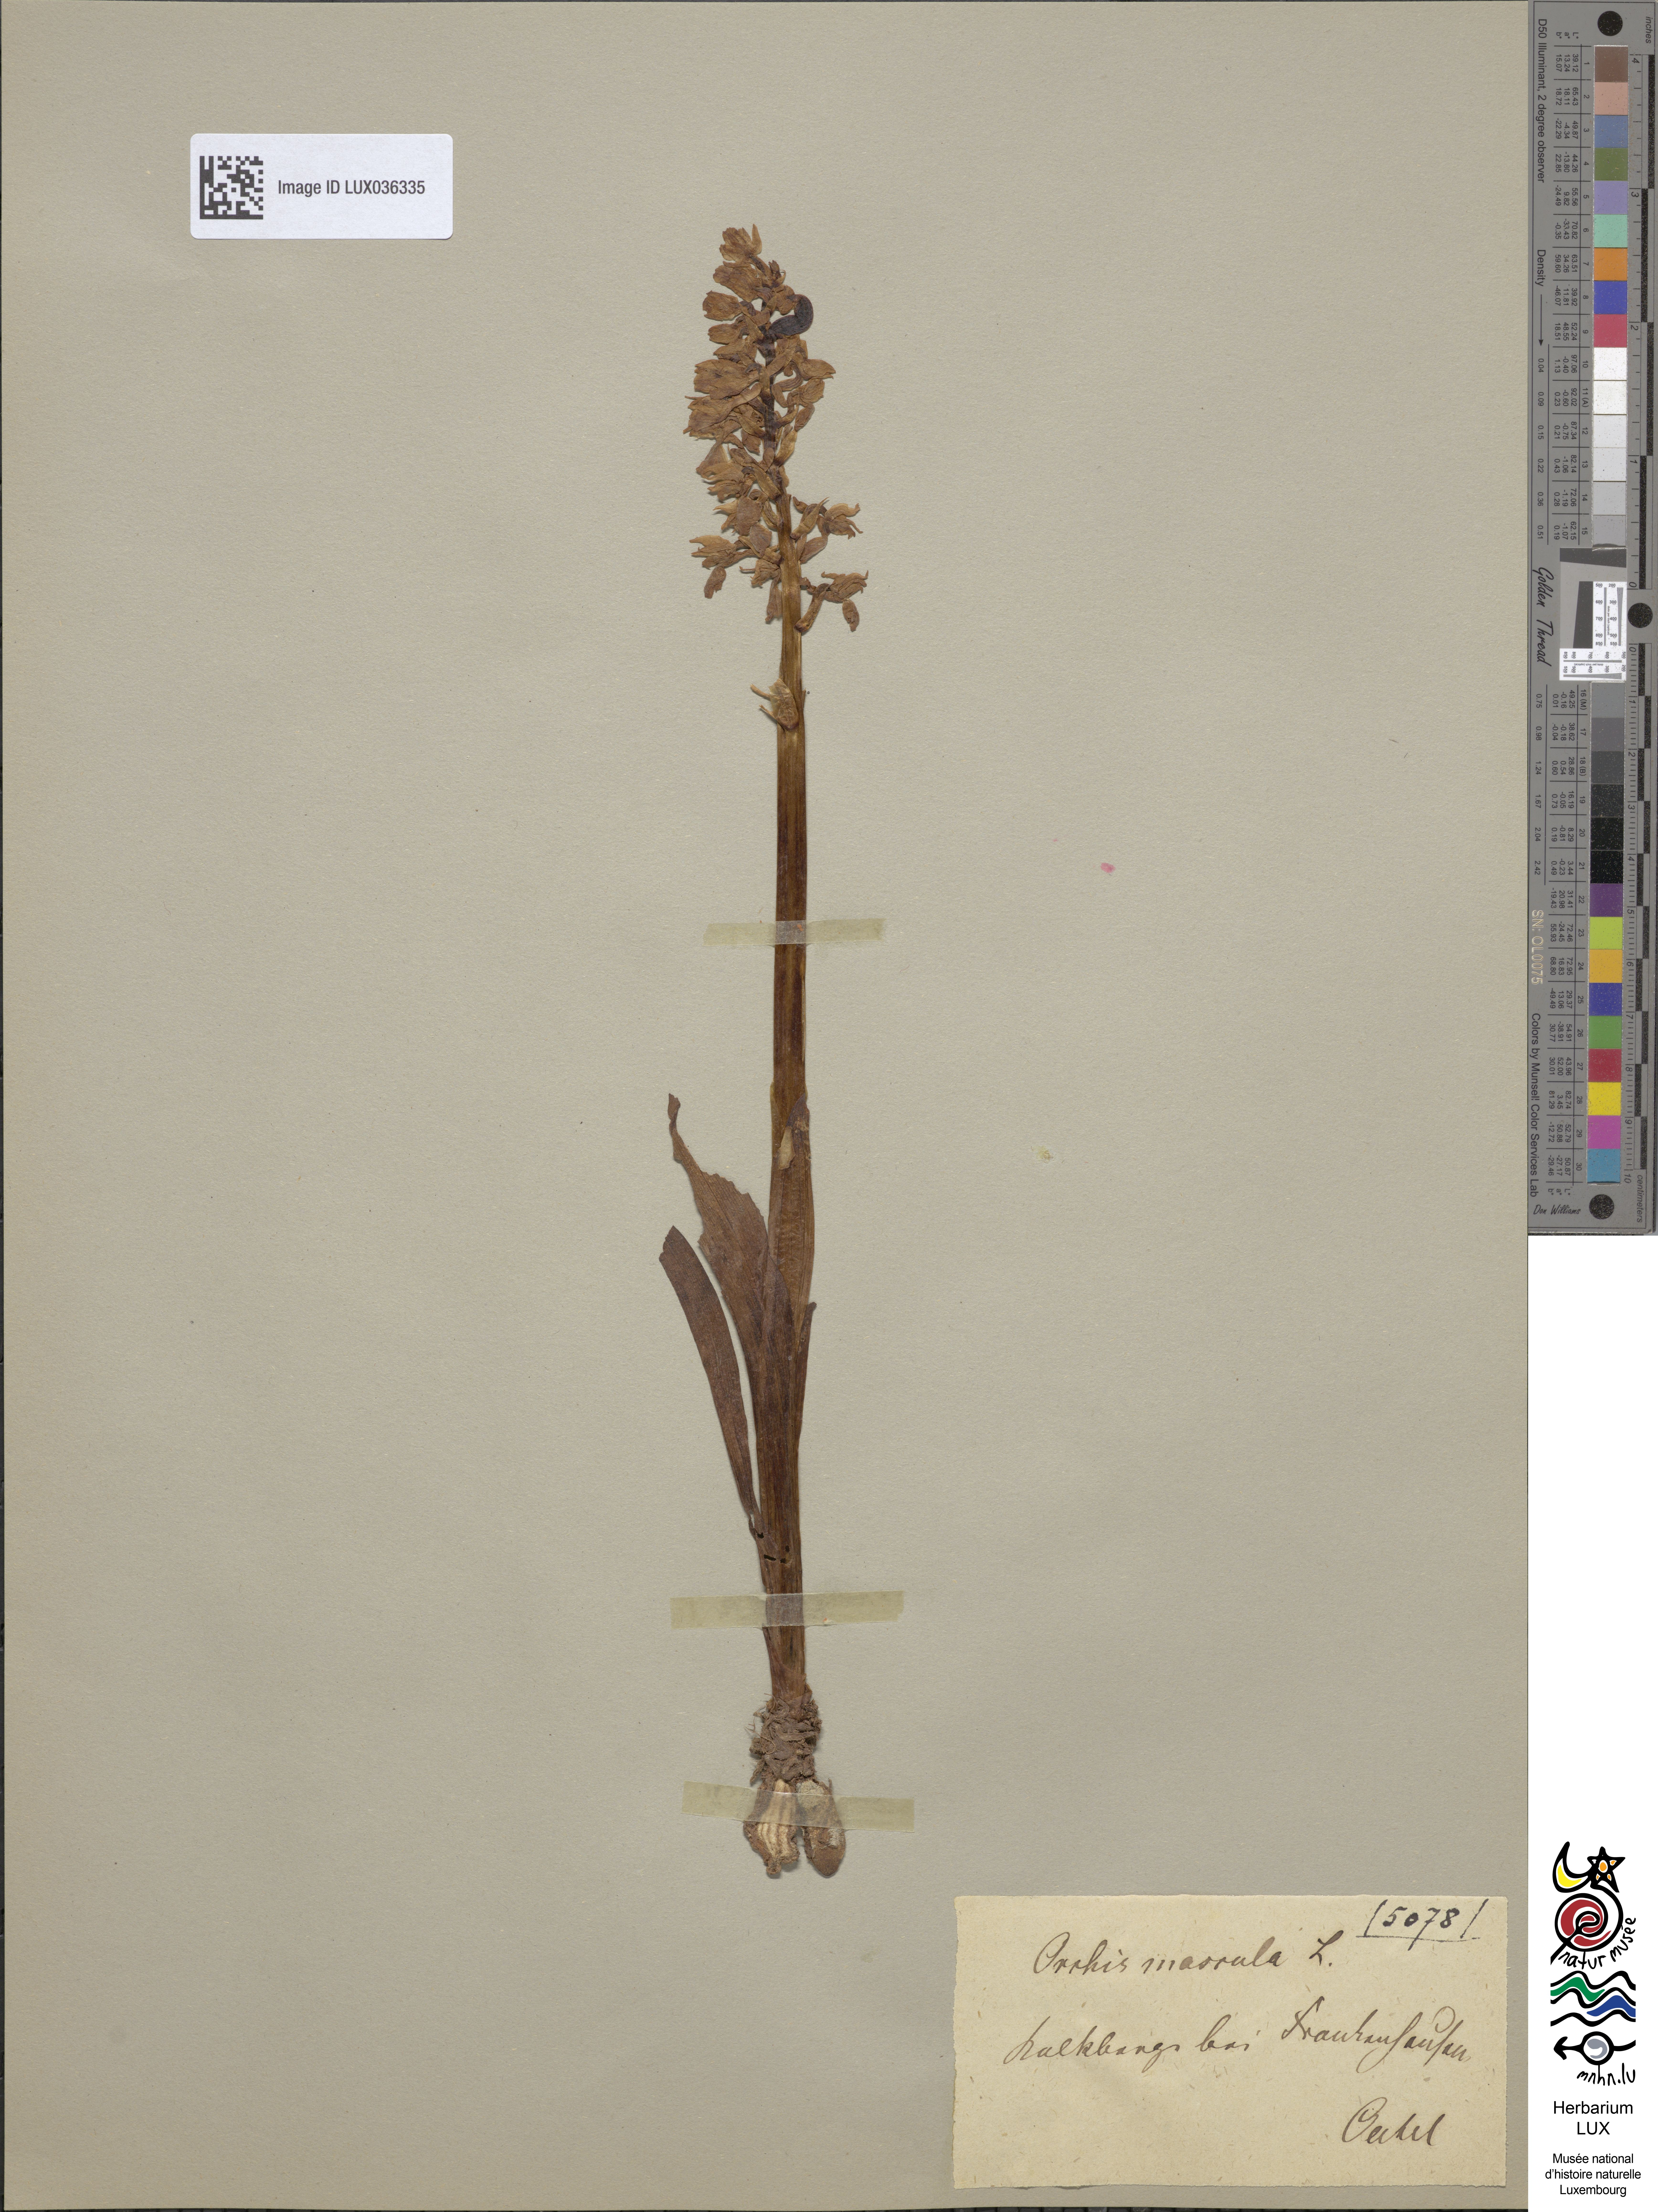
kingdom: Plantae
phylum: Tracheophyta
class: Liliopsida
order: Asparagales
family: Orchidaceae
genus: Orchis
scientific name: Orchis mascula
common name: Early-purple orchid
